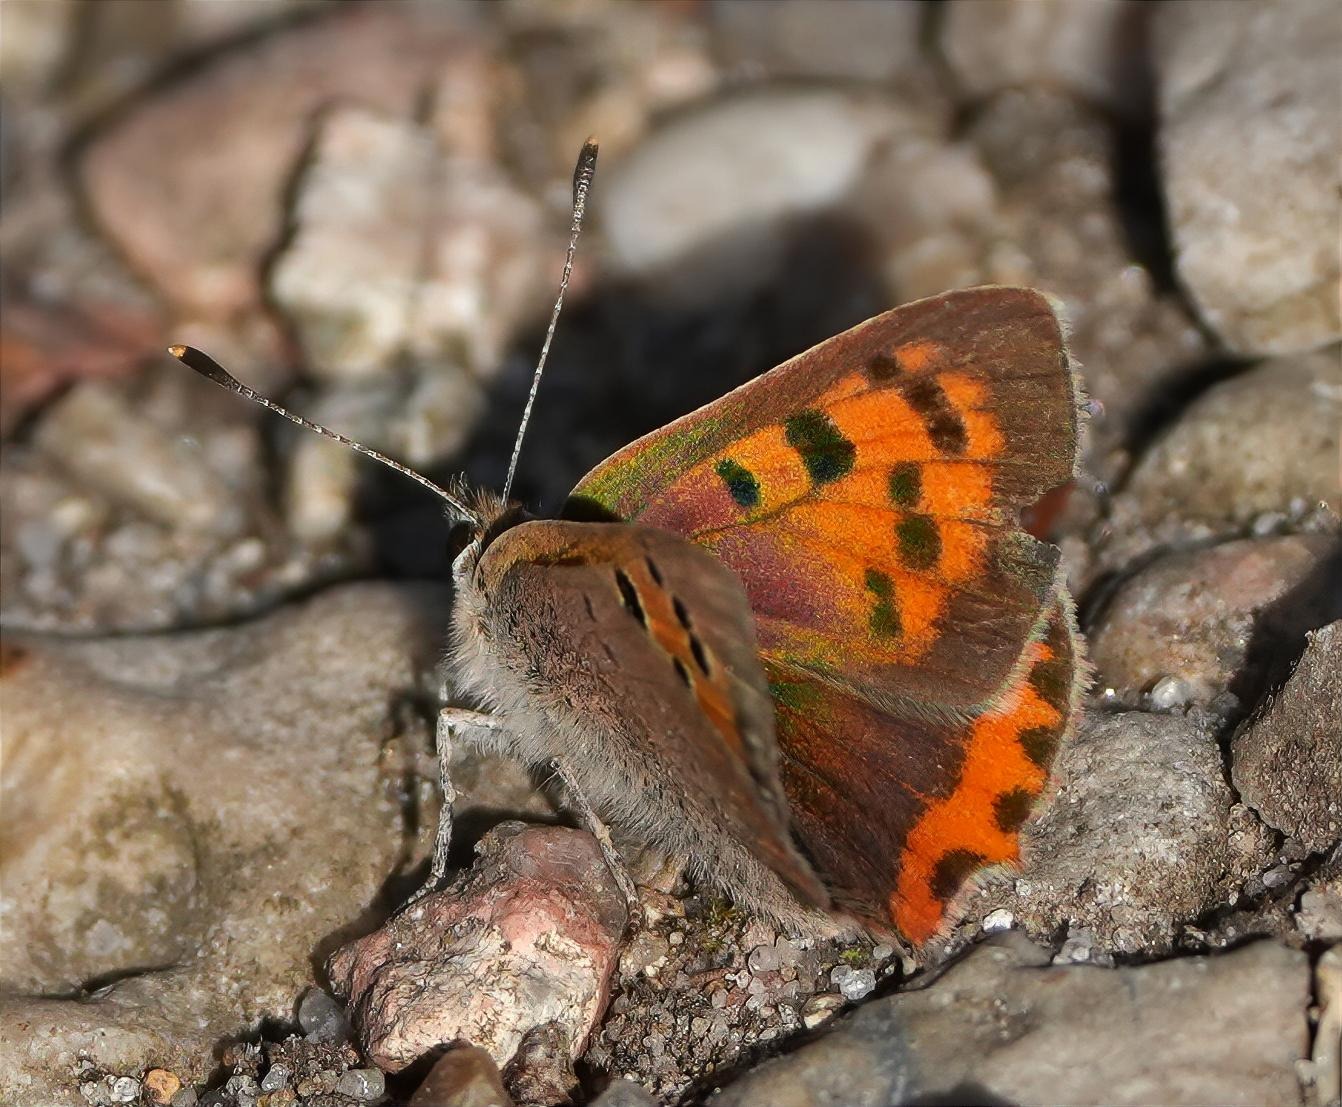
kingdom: Animalia
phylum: Arthropoda
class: Insecta
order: Lepidoptera
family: Lycaenidae
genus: Lycaena
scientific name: Lycaena phlaeas
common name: Lille ildfugl
